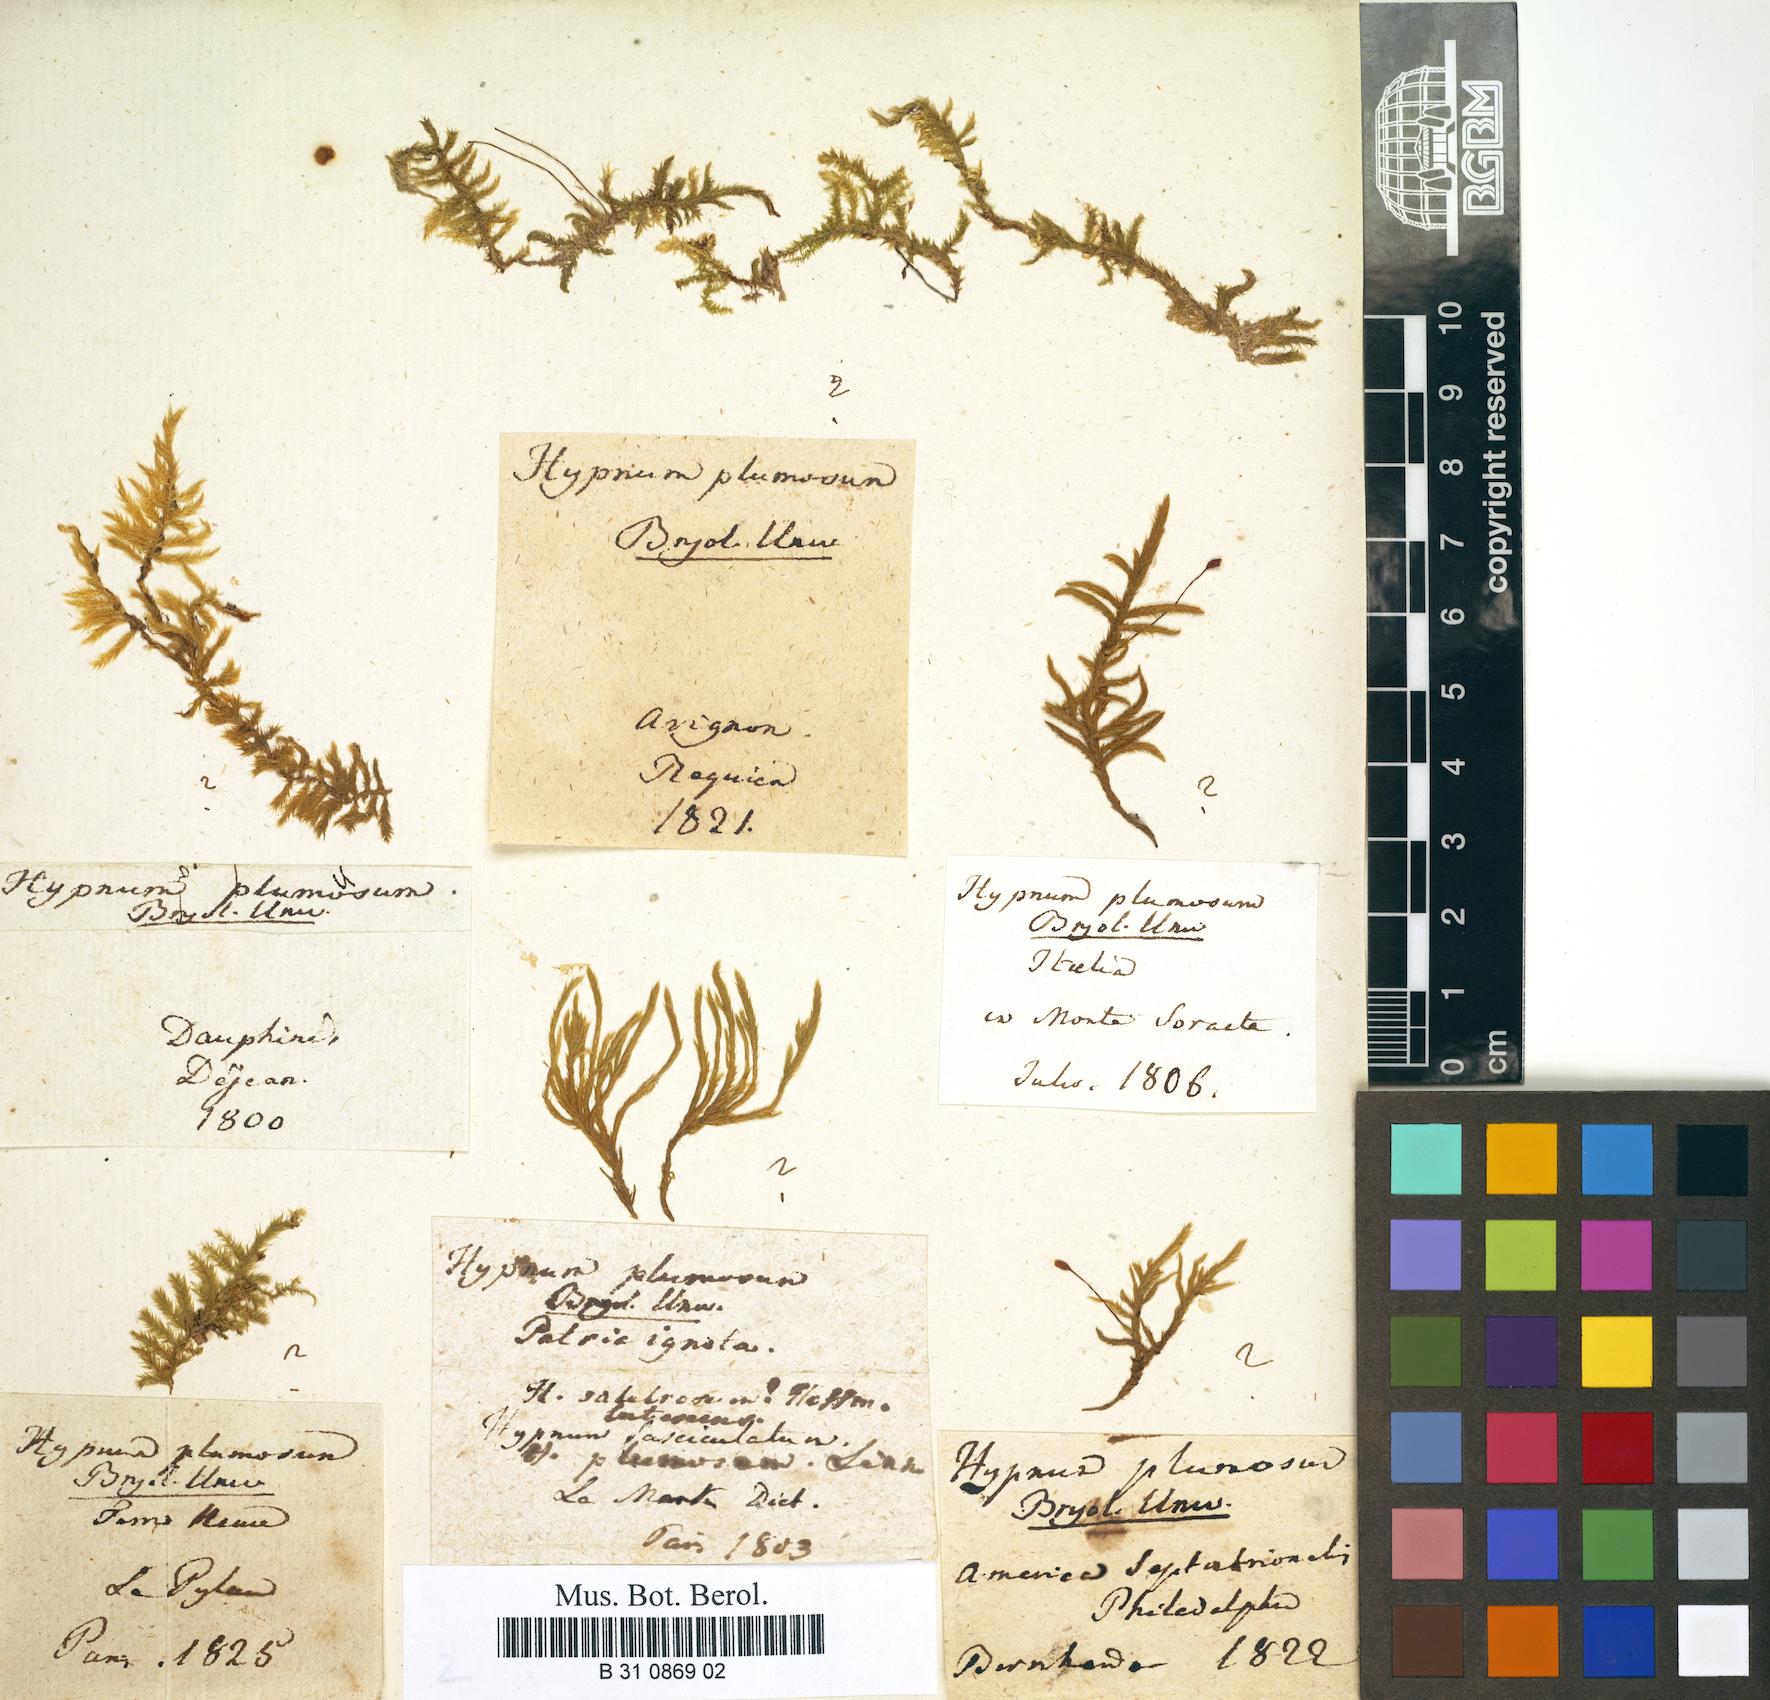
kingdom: Plantae
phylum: Bryophyta
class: Bryopsida
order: Hypnales
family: Brachytheciaceae
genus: Sciuro-hypnum
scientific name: Sciuro-hypnum plumosum
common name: Rusty feather-moss
